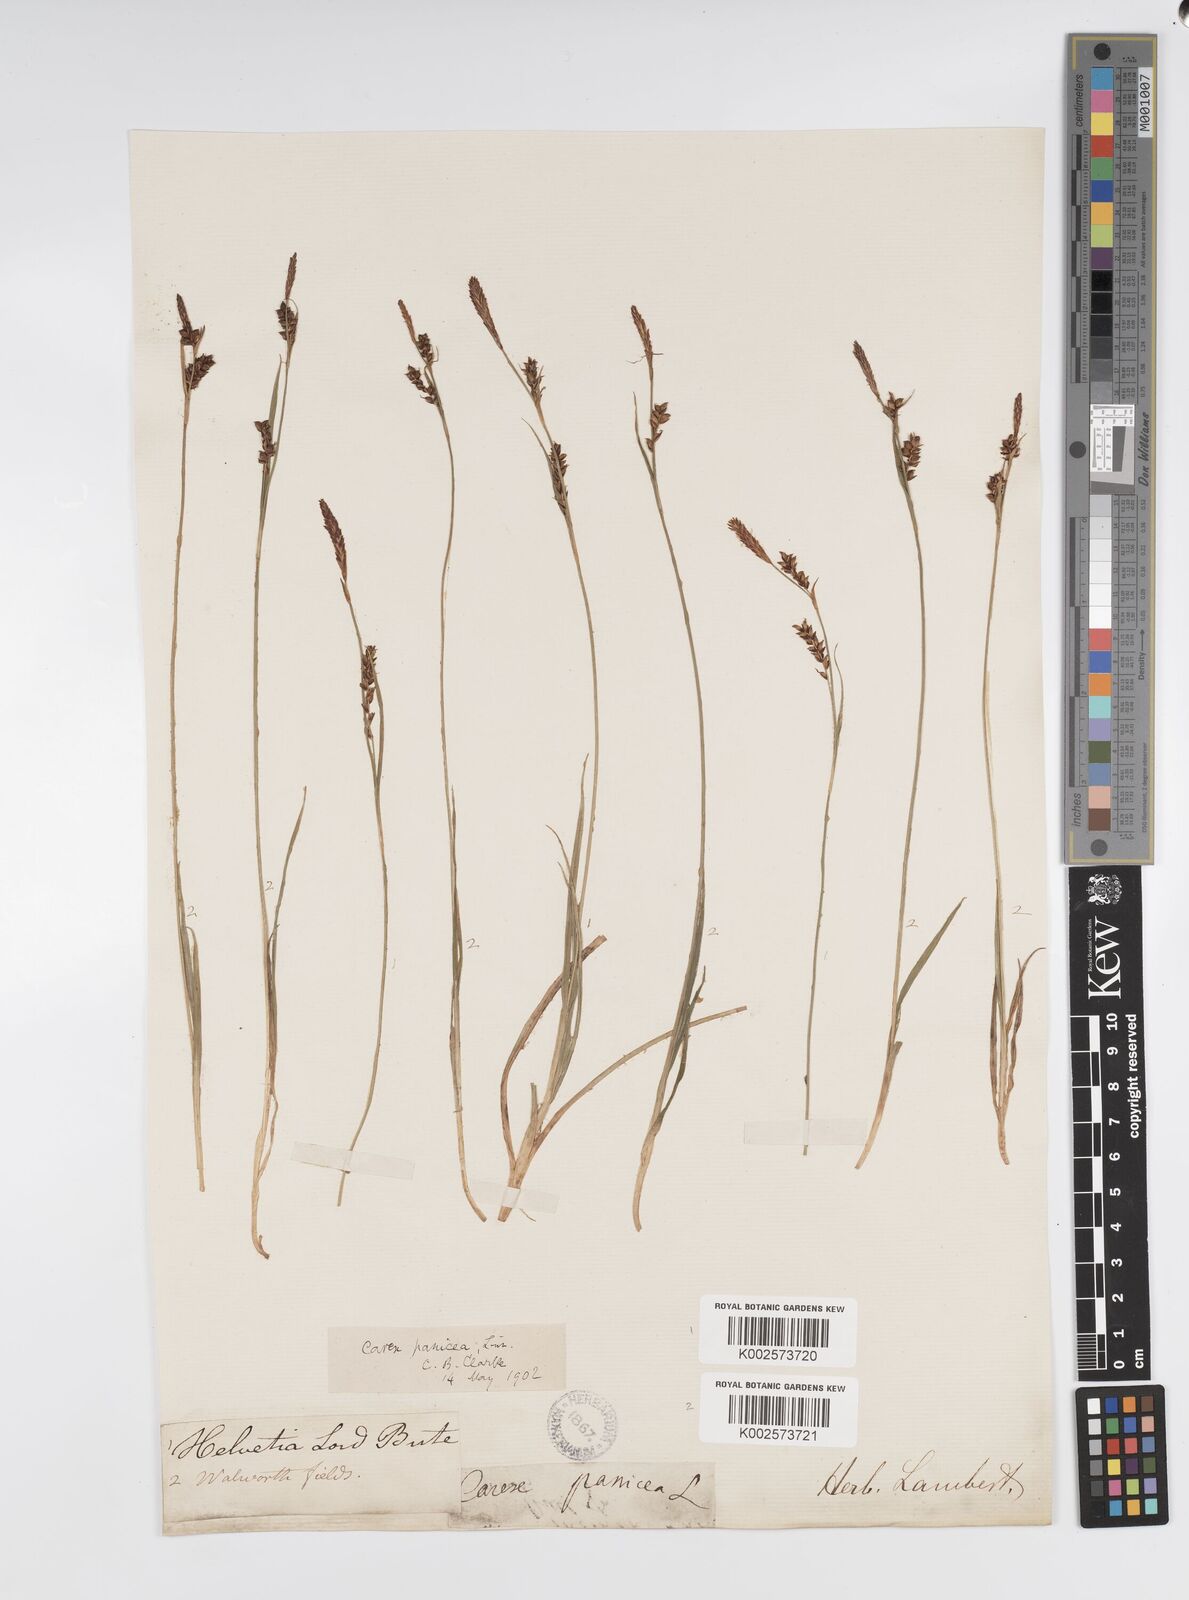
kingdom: Plantae
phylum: Tracheophyta
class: Liliopsida
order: Poales
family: Cyperaceae
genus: Carex
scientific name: Carex panicea
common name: Carnation sedge
